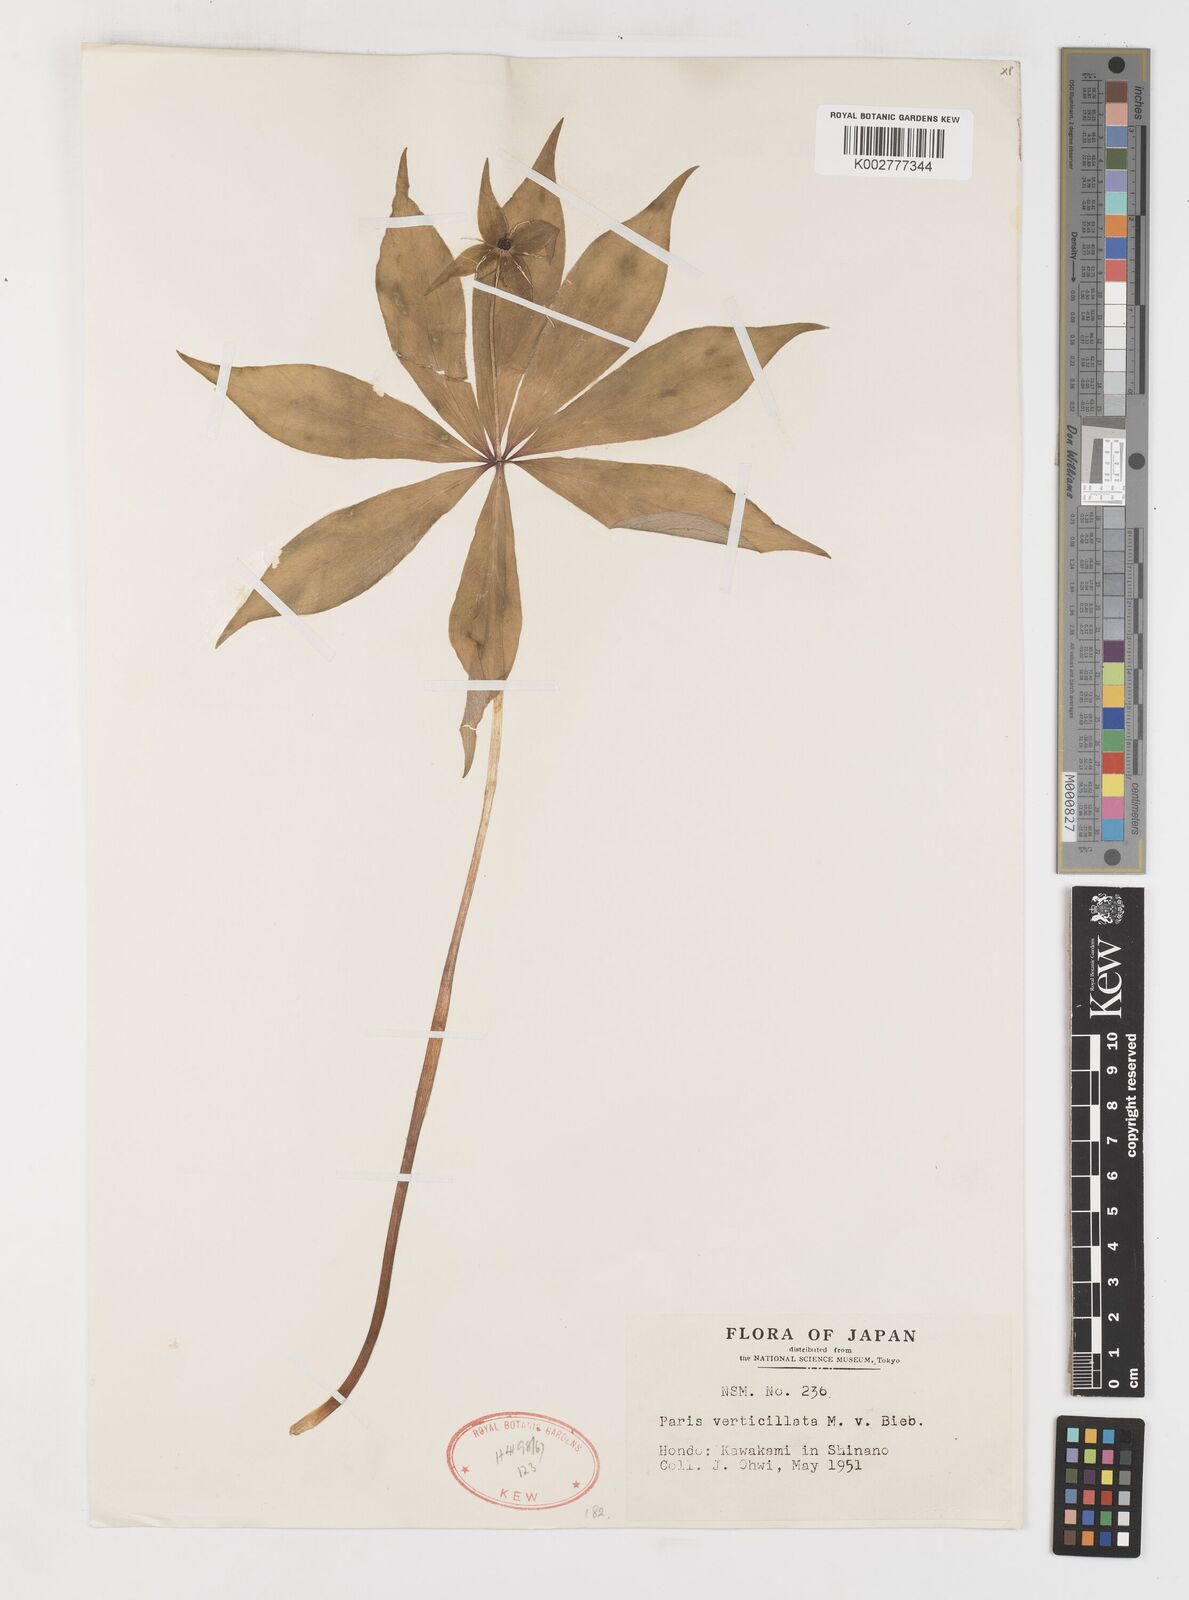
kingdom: Plantae
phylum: Tracheophyta
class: Liliopsida
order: Liliales
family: Melanthiaceae
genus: Paris
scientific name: Paris verticillata
